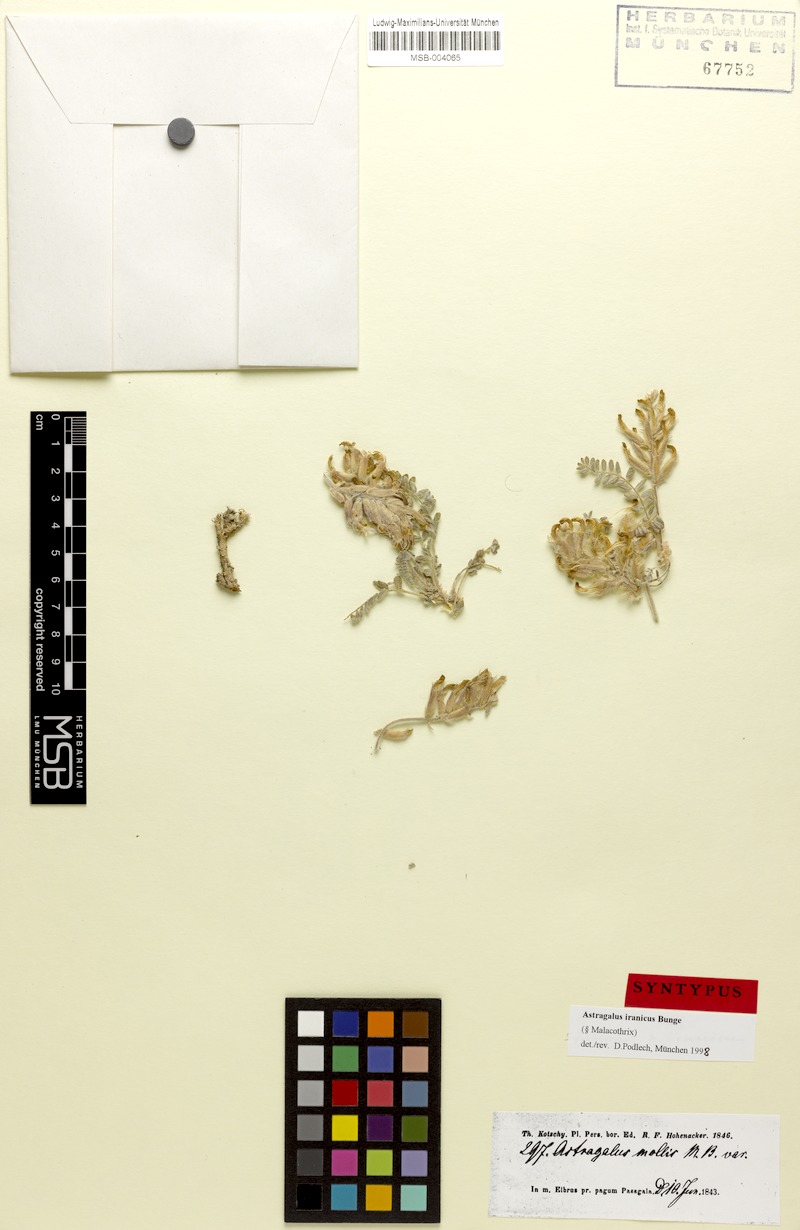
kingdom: Plantae
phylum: Tracheophyta
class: Magnoliopsida
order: Fabales
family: Fabaceae
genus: Astragalus
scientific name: Astragalus iranicus
